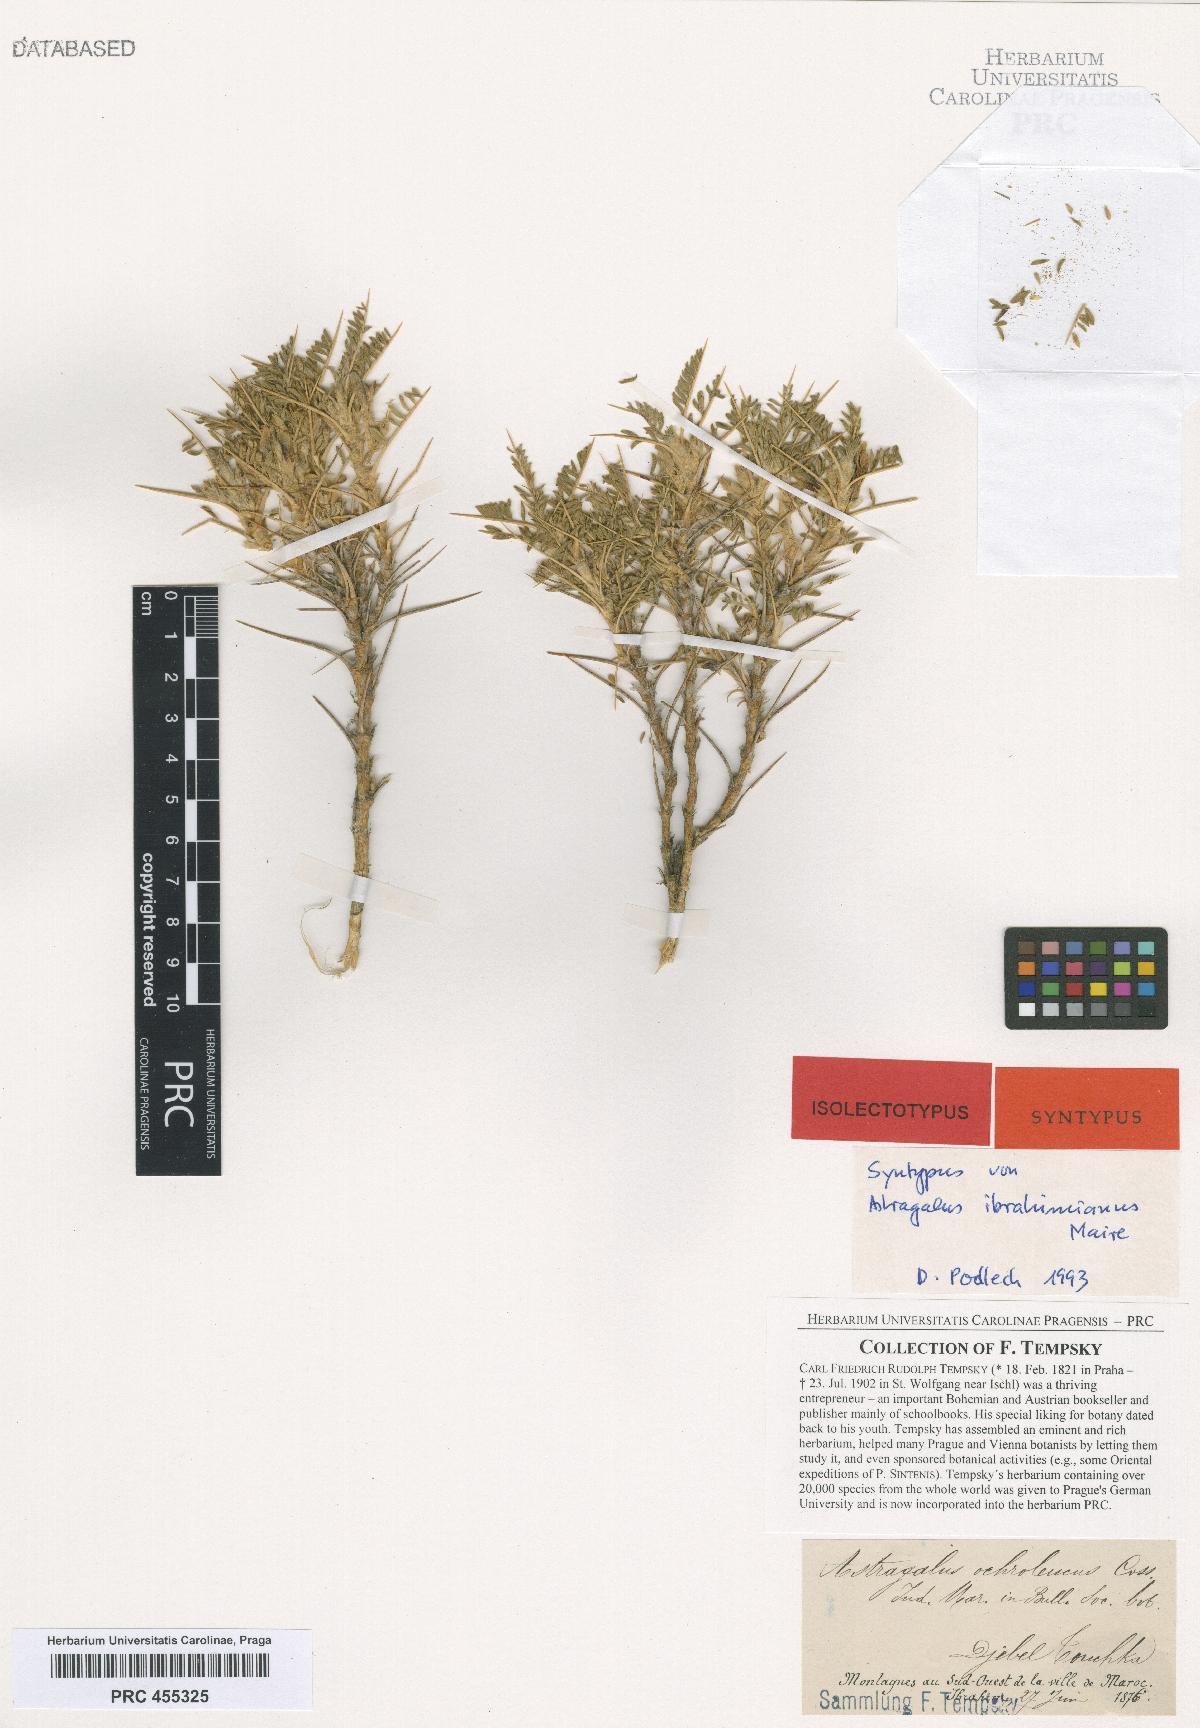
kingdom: Plantae
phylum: Tracheophyta
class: Magnoliopsida
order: Fabales
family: Fabaceae
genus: Astragalus
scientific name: Astragalus ibrahimianus
